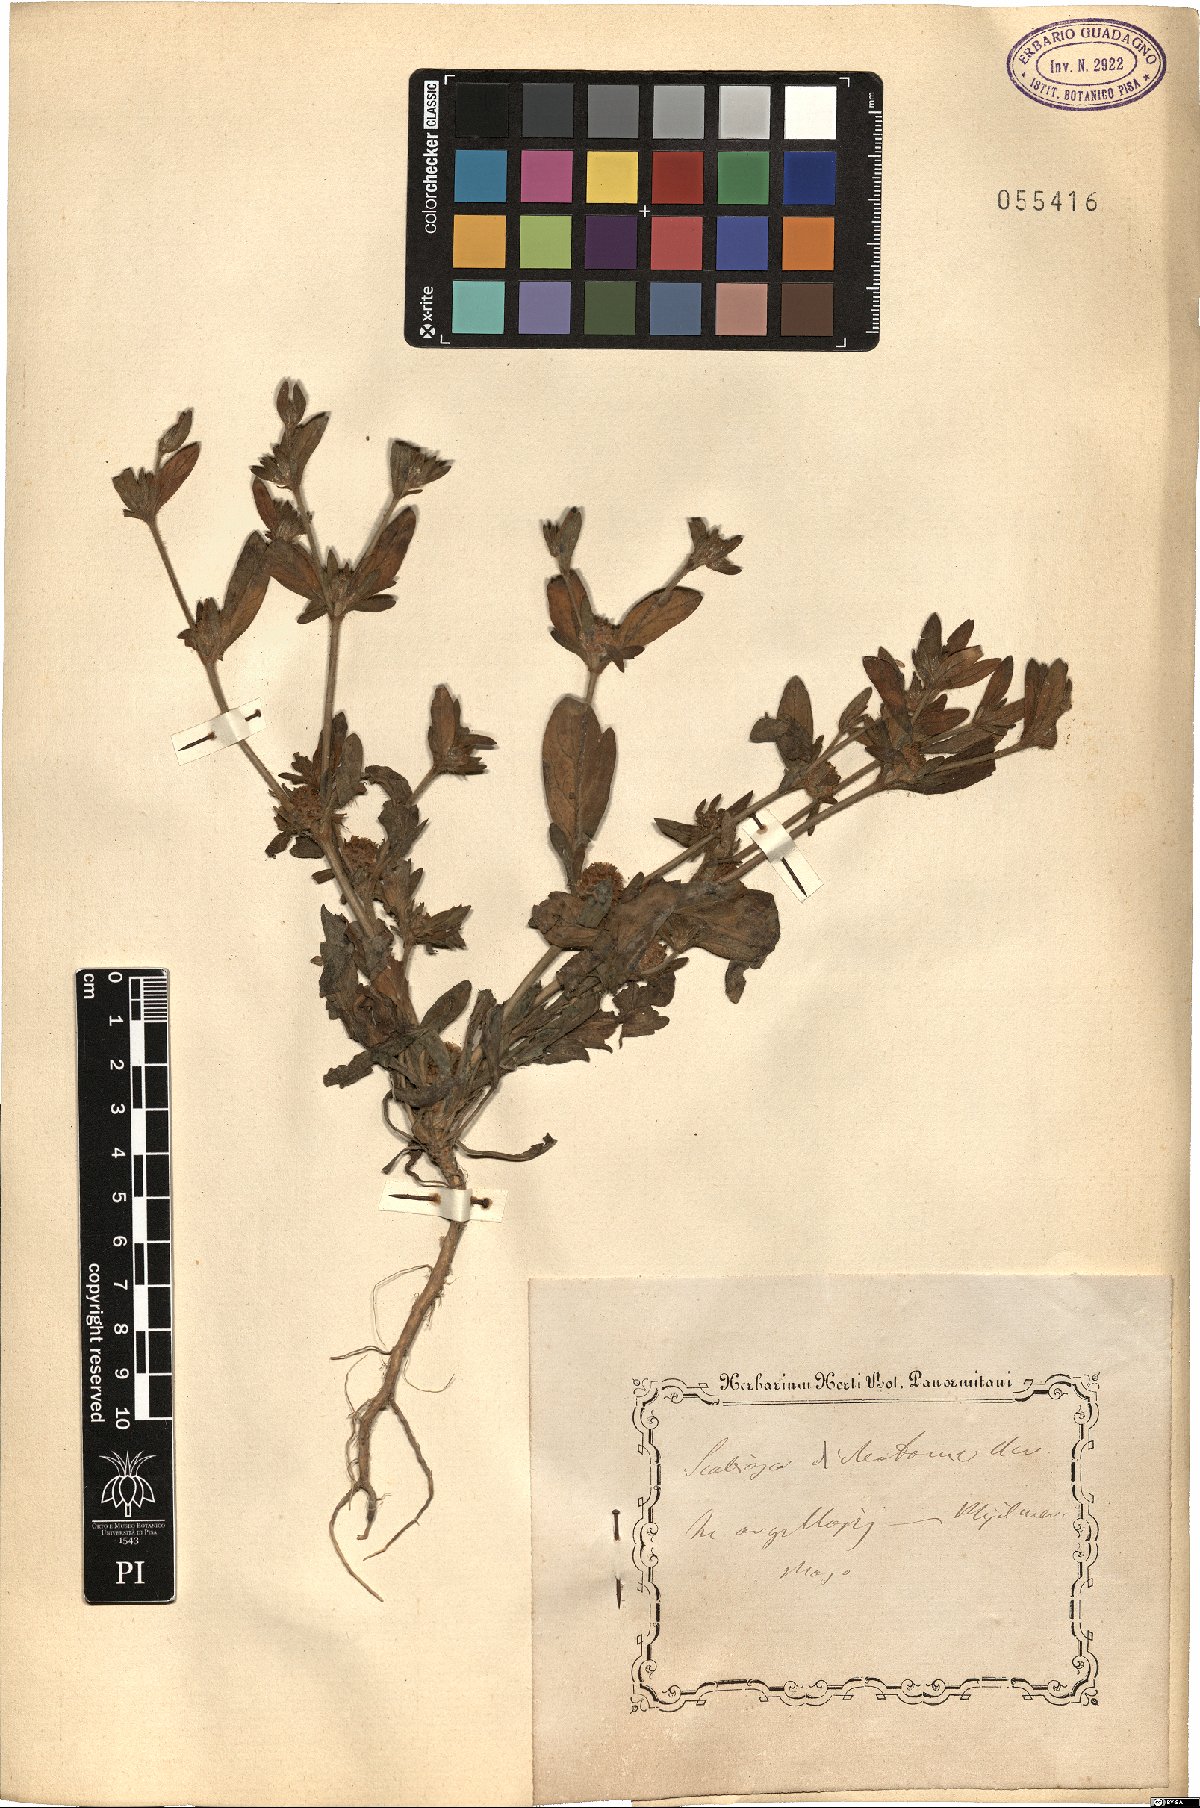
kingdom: Plantae
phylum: Tracheophyta
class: Magnoliopsida
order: Dipsacales
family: Caprifoliaceae
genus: Cephalaria
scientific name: Cephalaria syriaca
